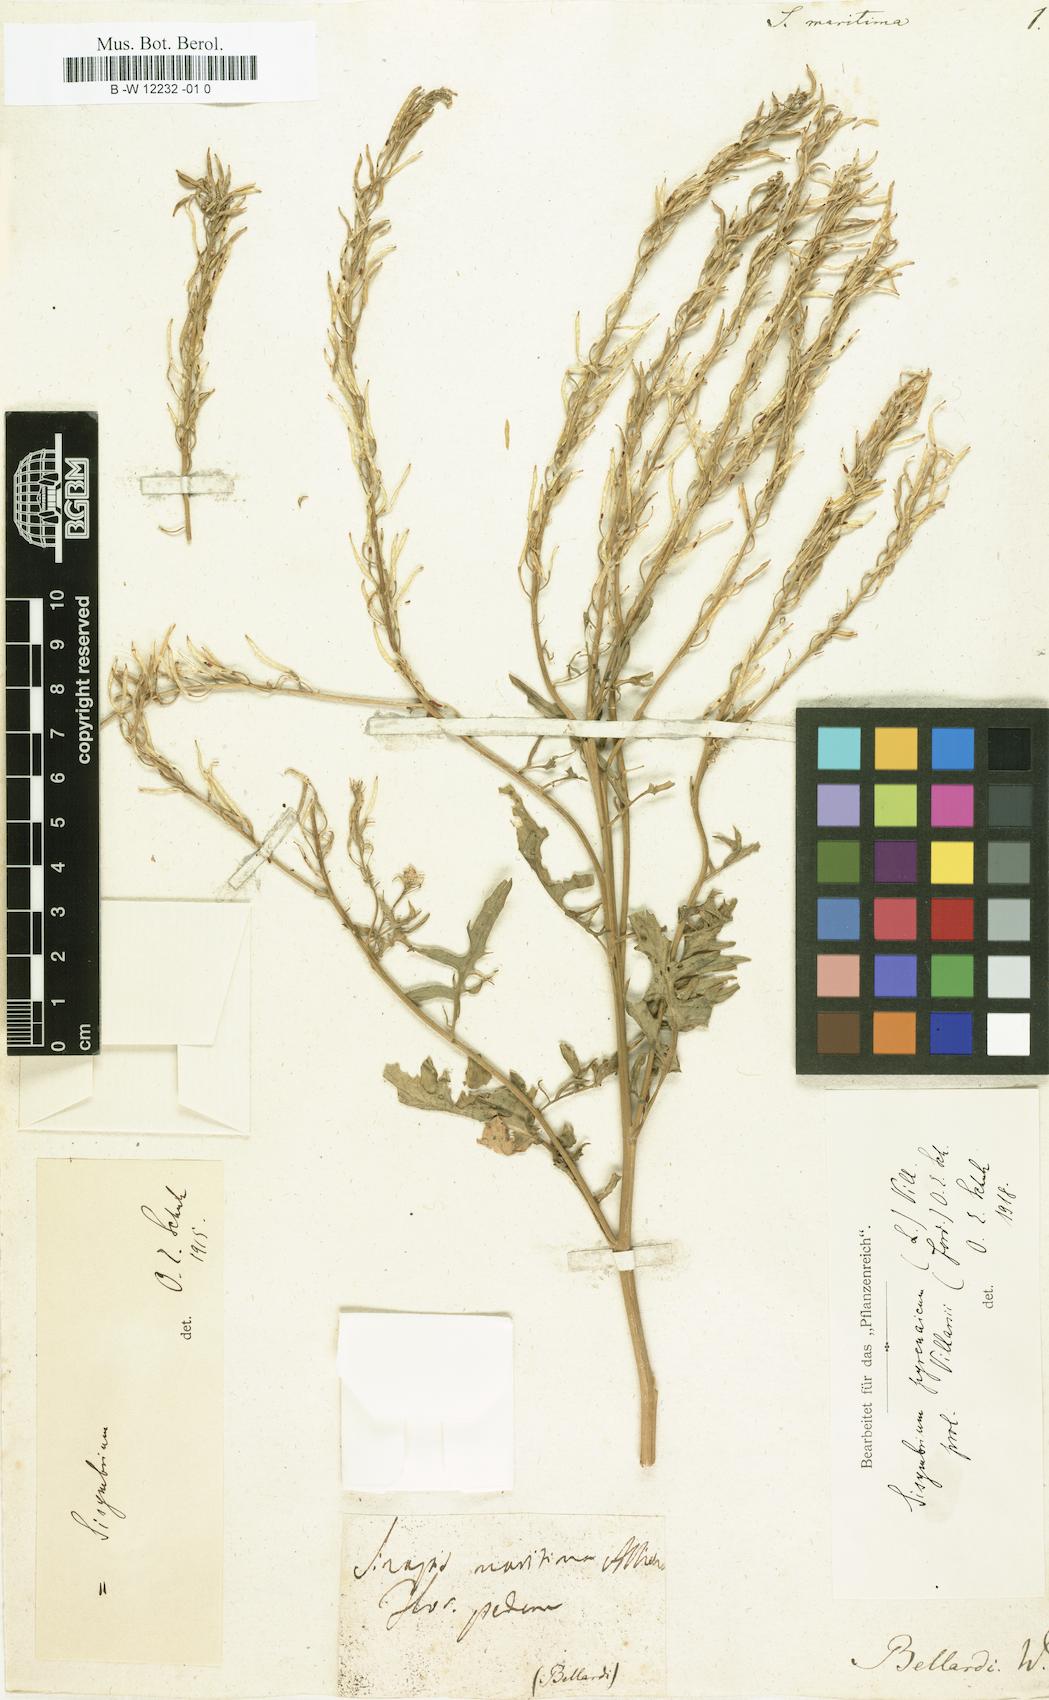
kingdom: Plantae
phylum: Tracheophyta
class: Magnoliopsida
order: Brassicales
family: Brassicaceae
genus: Sisymbrium
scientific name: Sisymbrium austriacum
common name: Jeweled rocket
